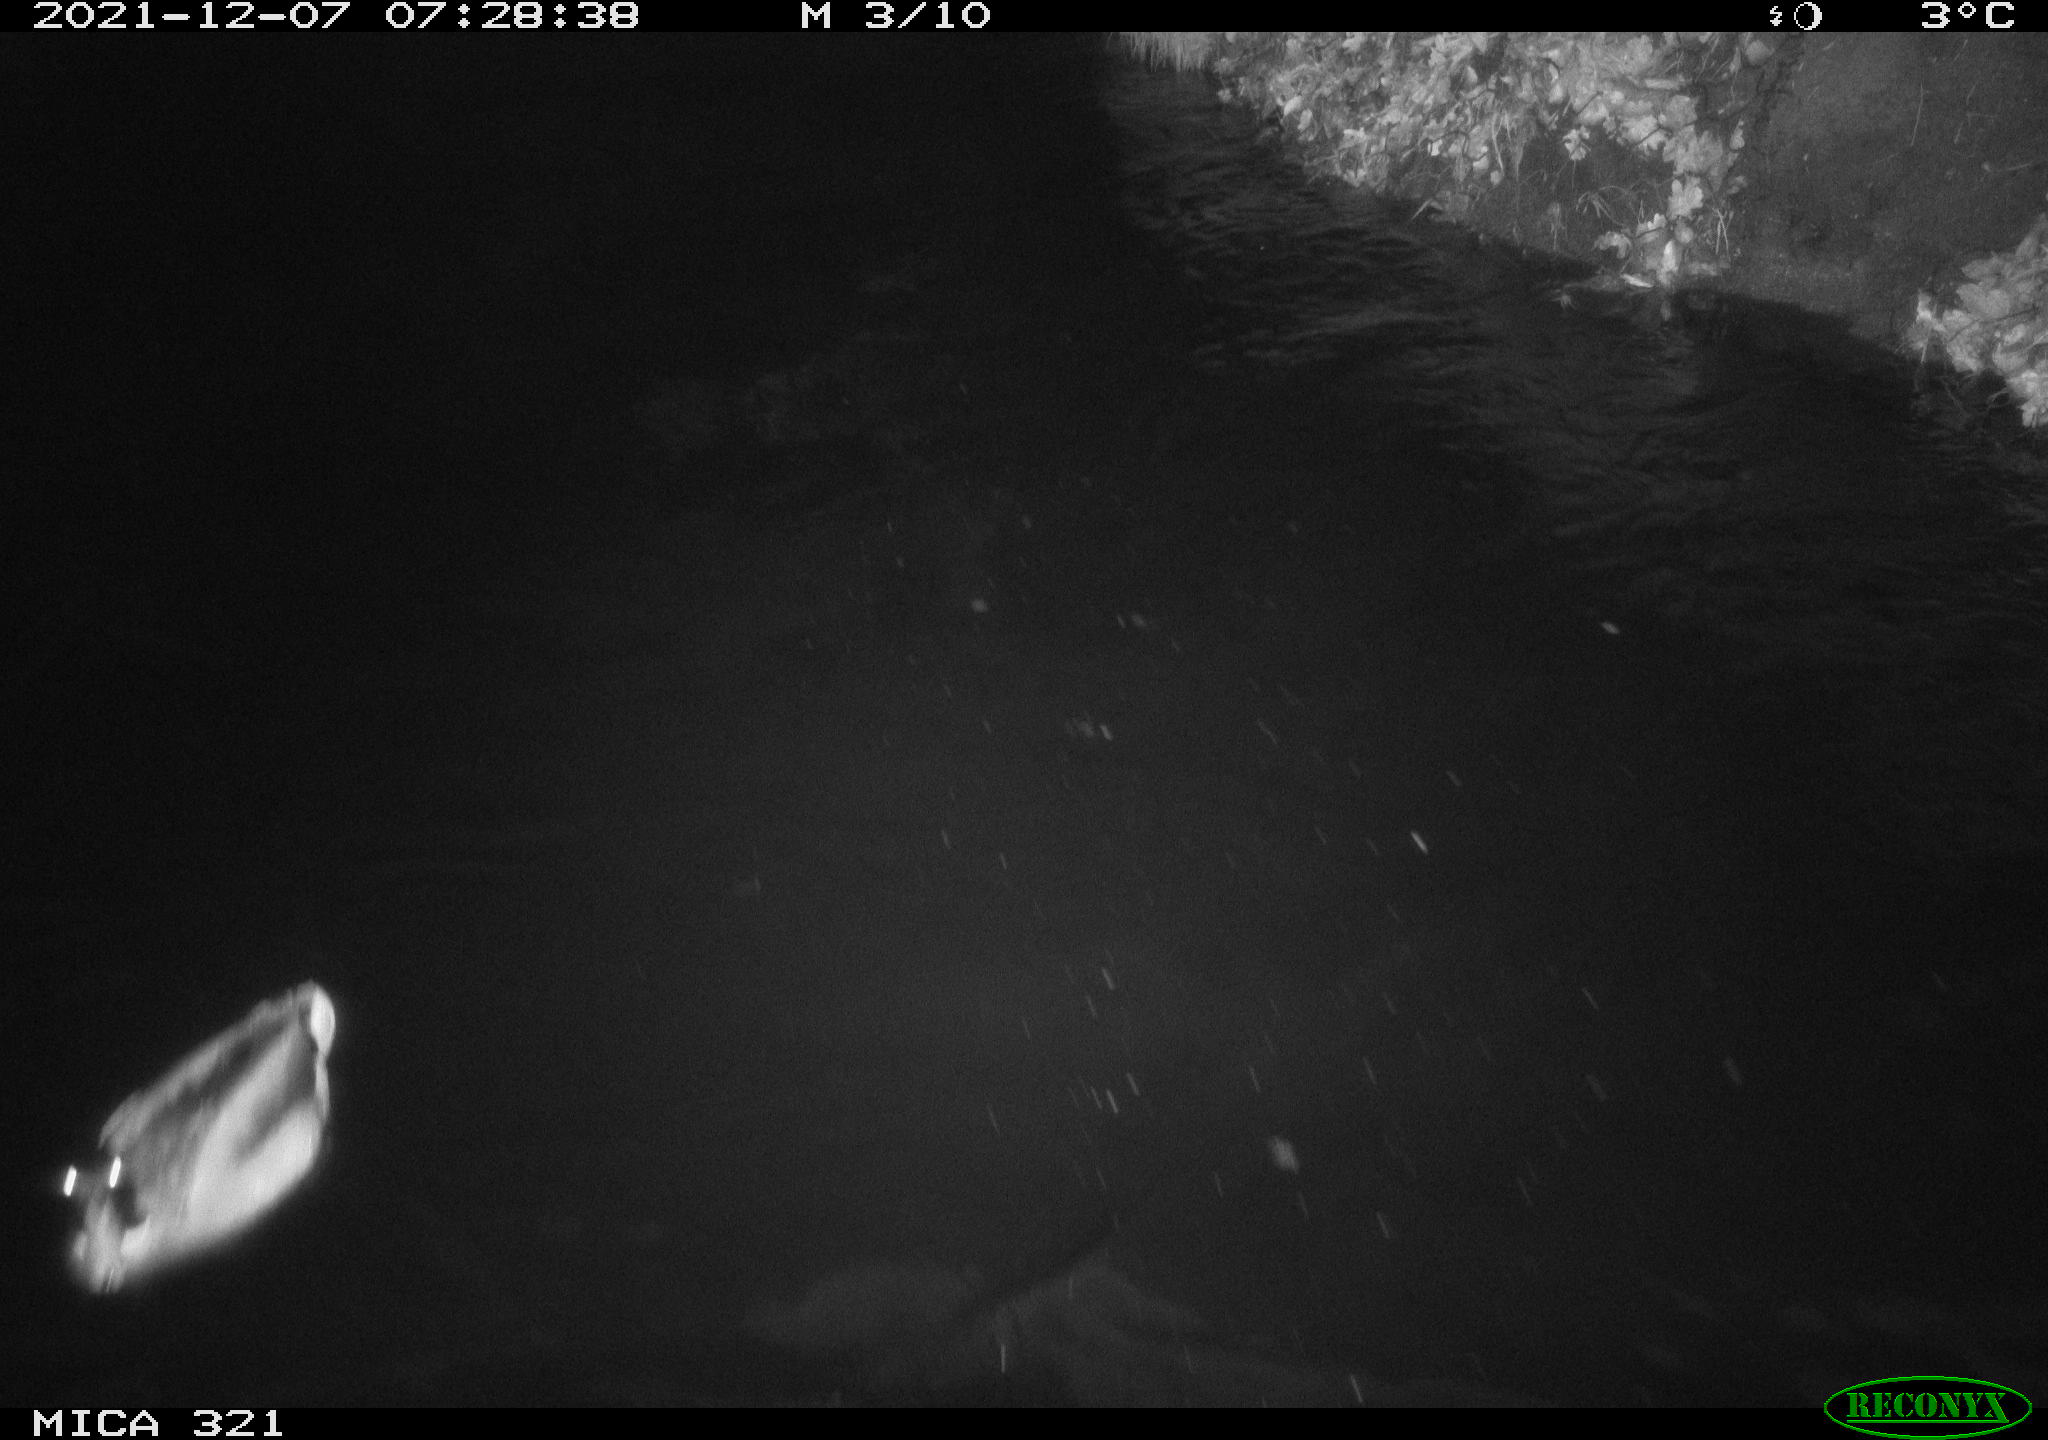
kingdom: Animalia
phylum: Chordata
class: Aves
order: Anseriformes
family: Anatidae
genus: Anas
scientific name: Anas
